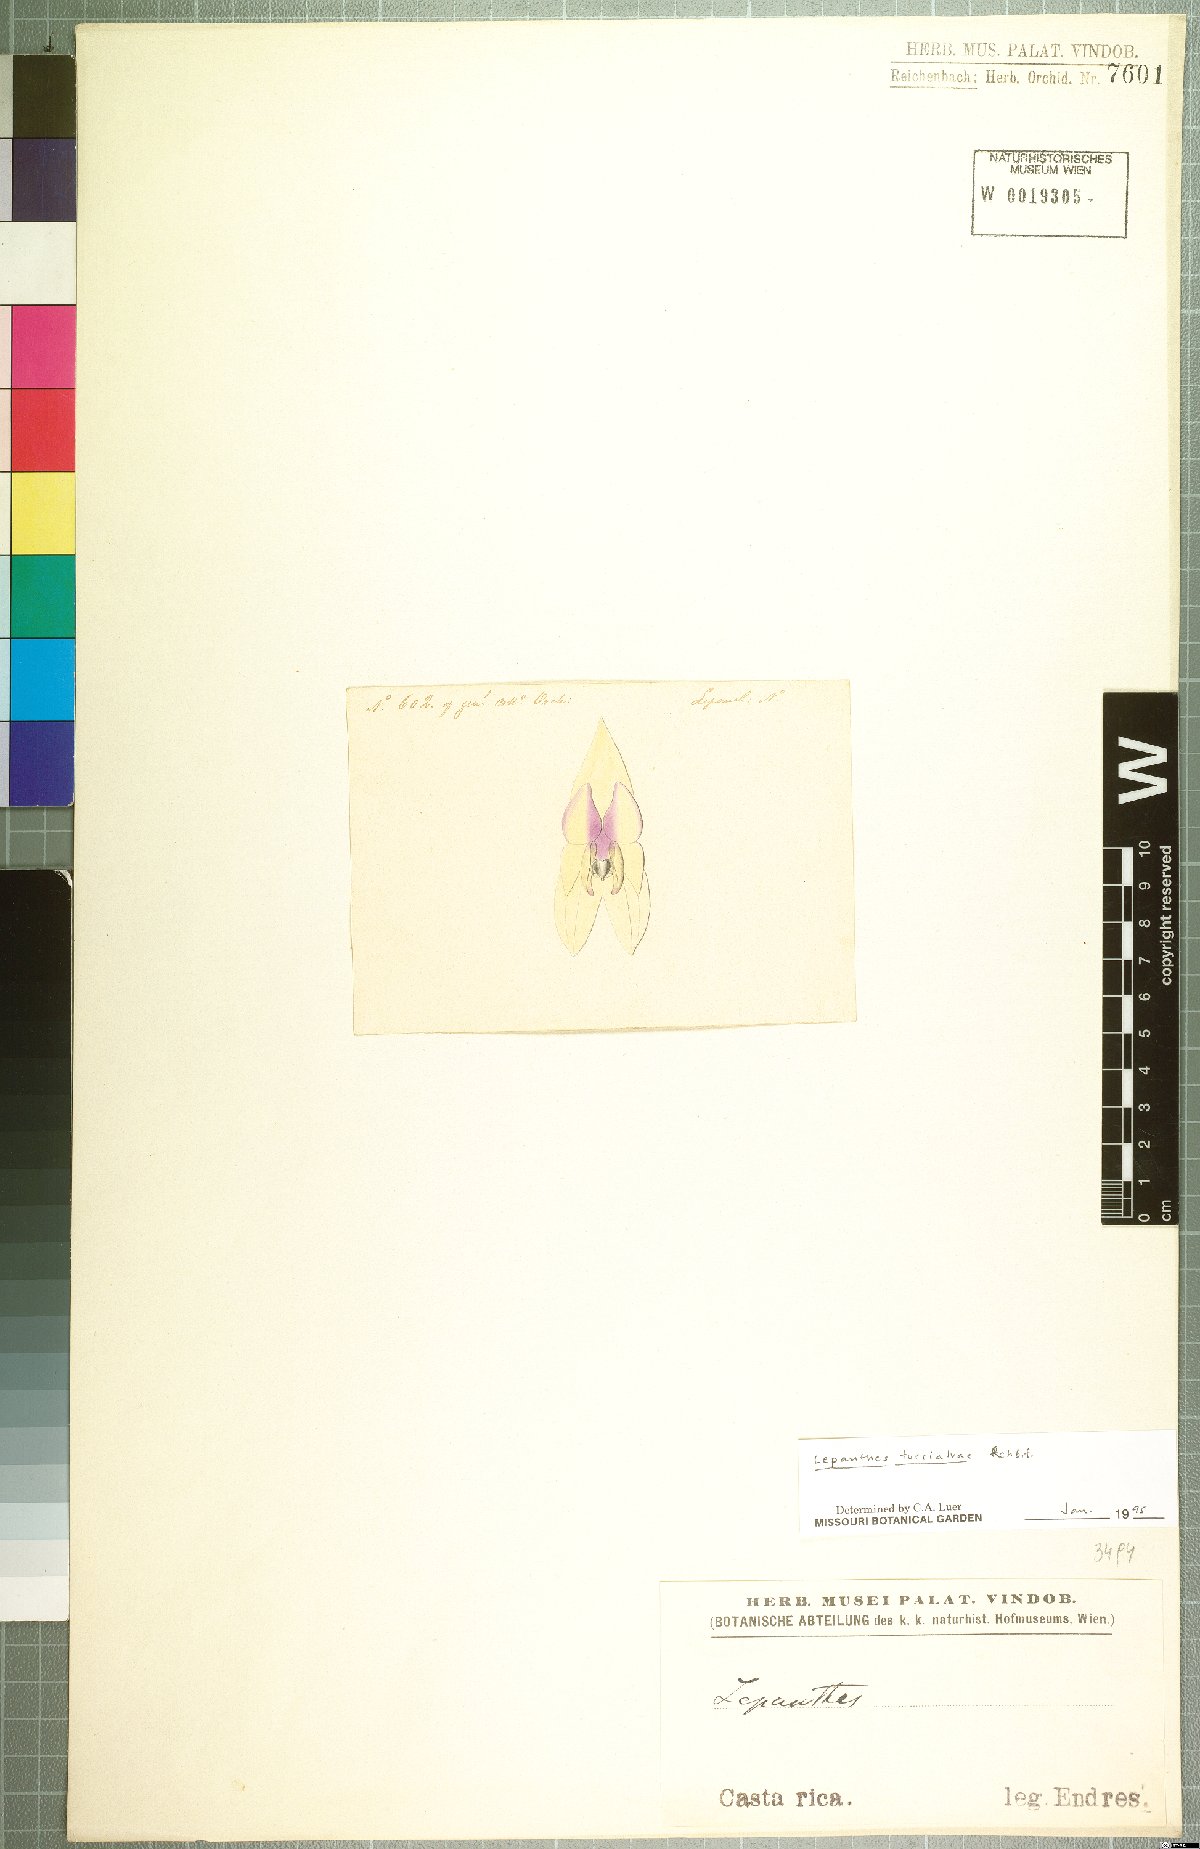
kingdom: Plantae
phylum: Tracheophyta
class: Liliopsida
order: Asparagales
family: Orchidaceae
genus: Lepanthes
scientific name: Lepanthes turialvae
